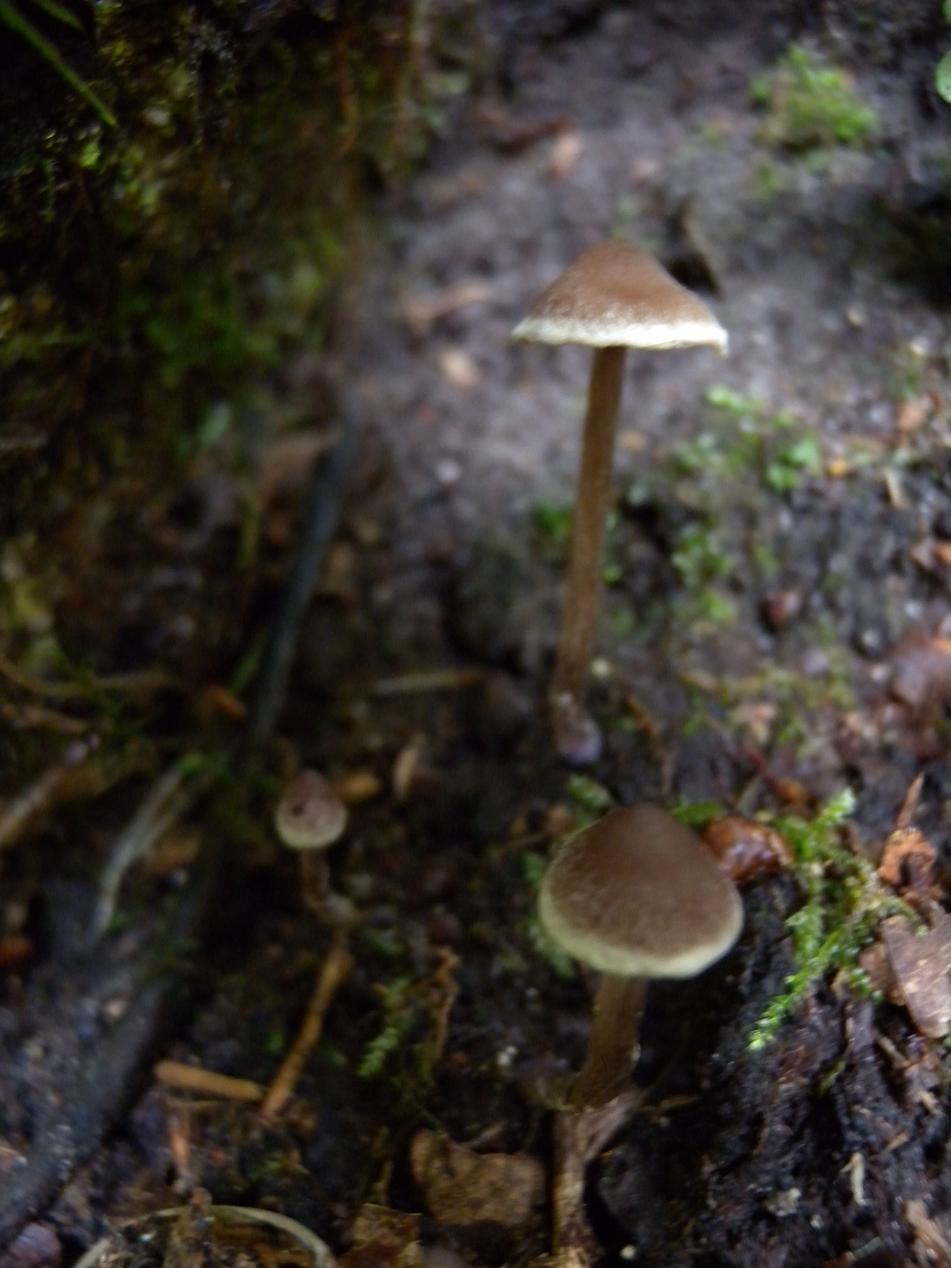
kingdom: Fungi
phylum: Basidiomycota
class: Agaricomycetes
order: Agaricales
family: Cortinariaceae
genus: Cortinarius
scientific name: Cortinarius
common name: pelargonie-slørhat
